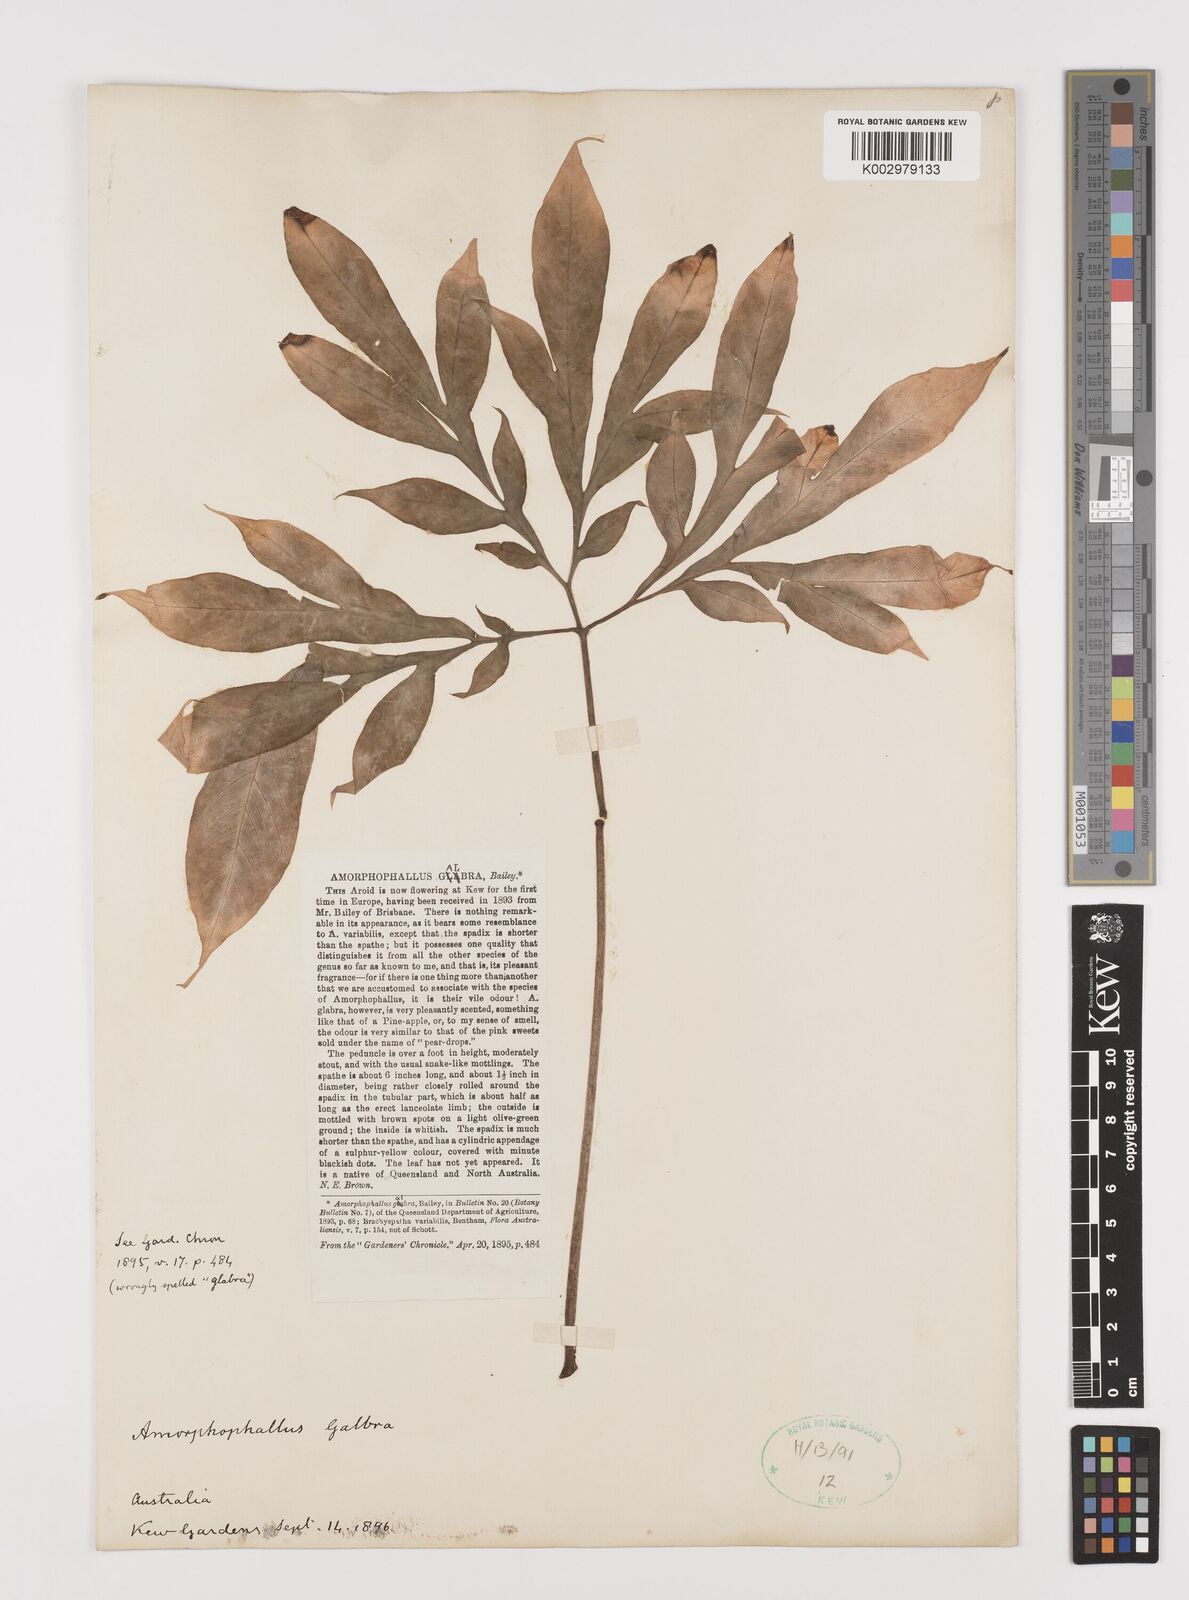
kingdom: Plantae
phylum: Tracheophyta
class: Liliopsida
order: Alismatales
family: Araceae
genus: Amorphophallus
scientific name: Amorphophallus galbra
